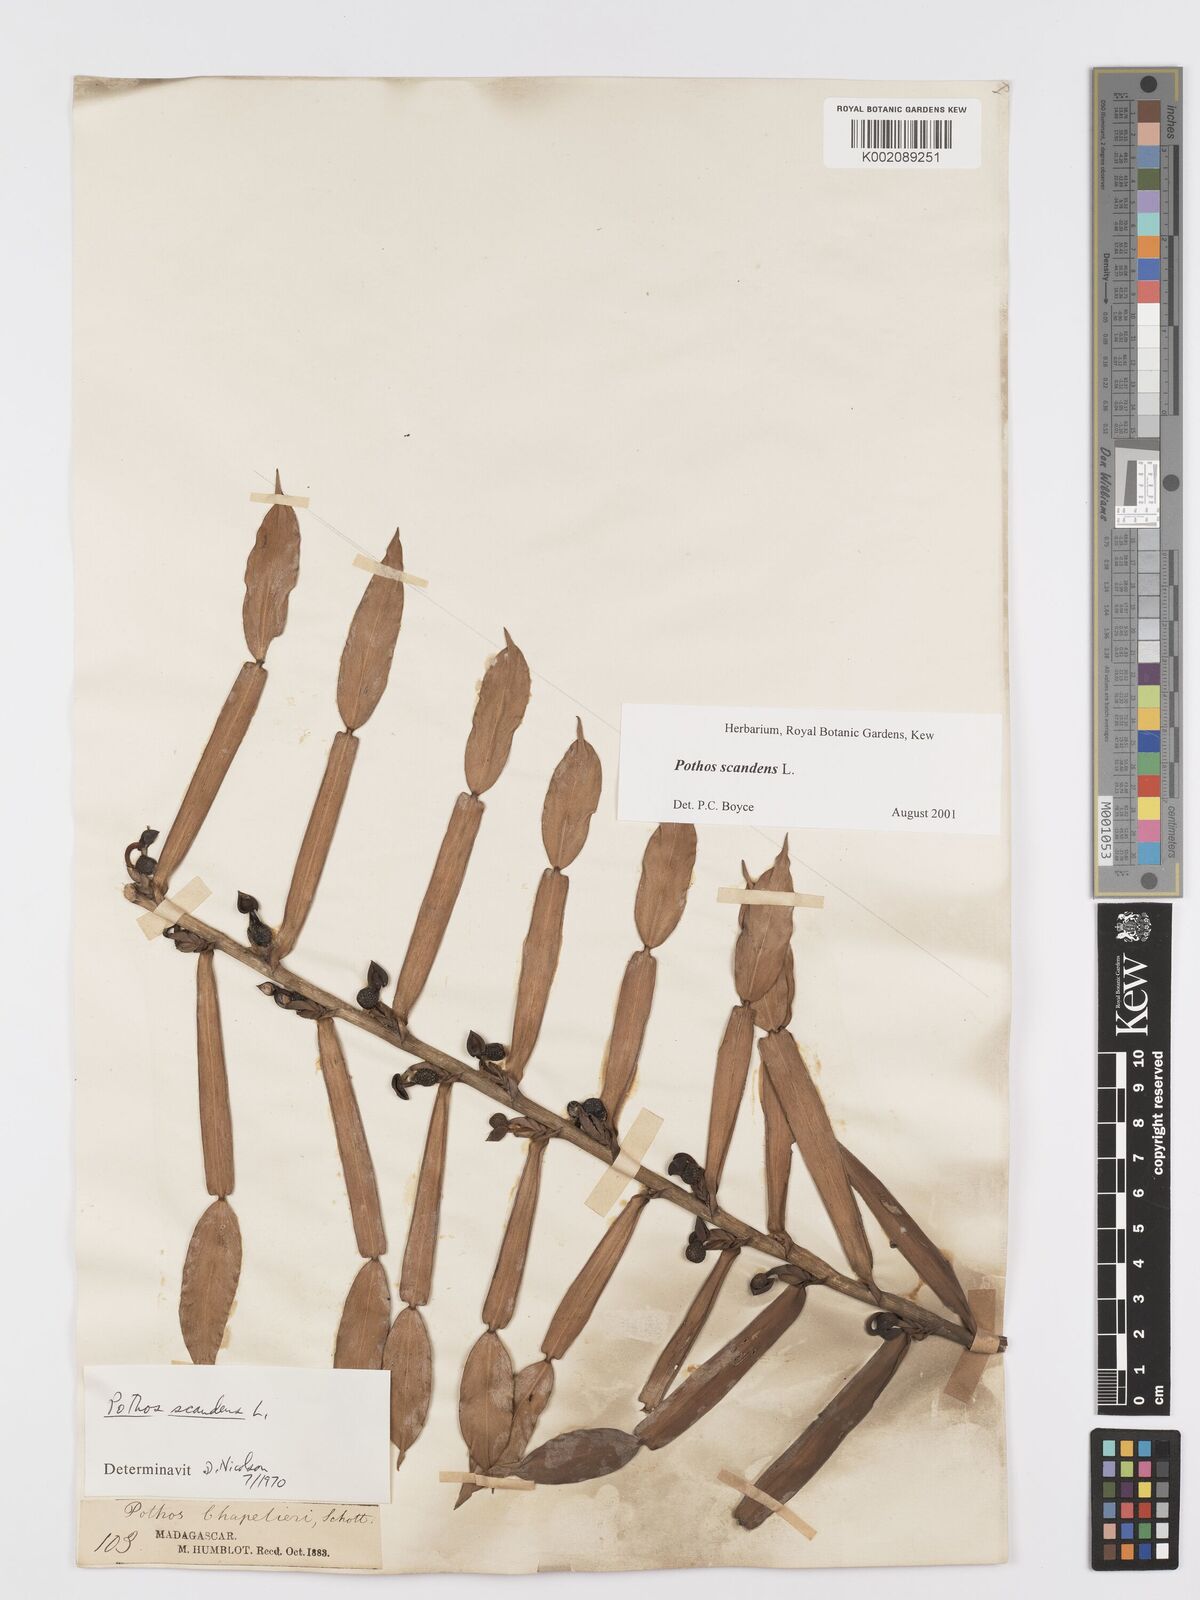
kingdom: Plantae
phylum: Tracheophyta
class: Liliopsida
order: Alismatales
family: Araceae
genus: Pothos
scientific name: Pothos scandens
